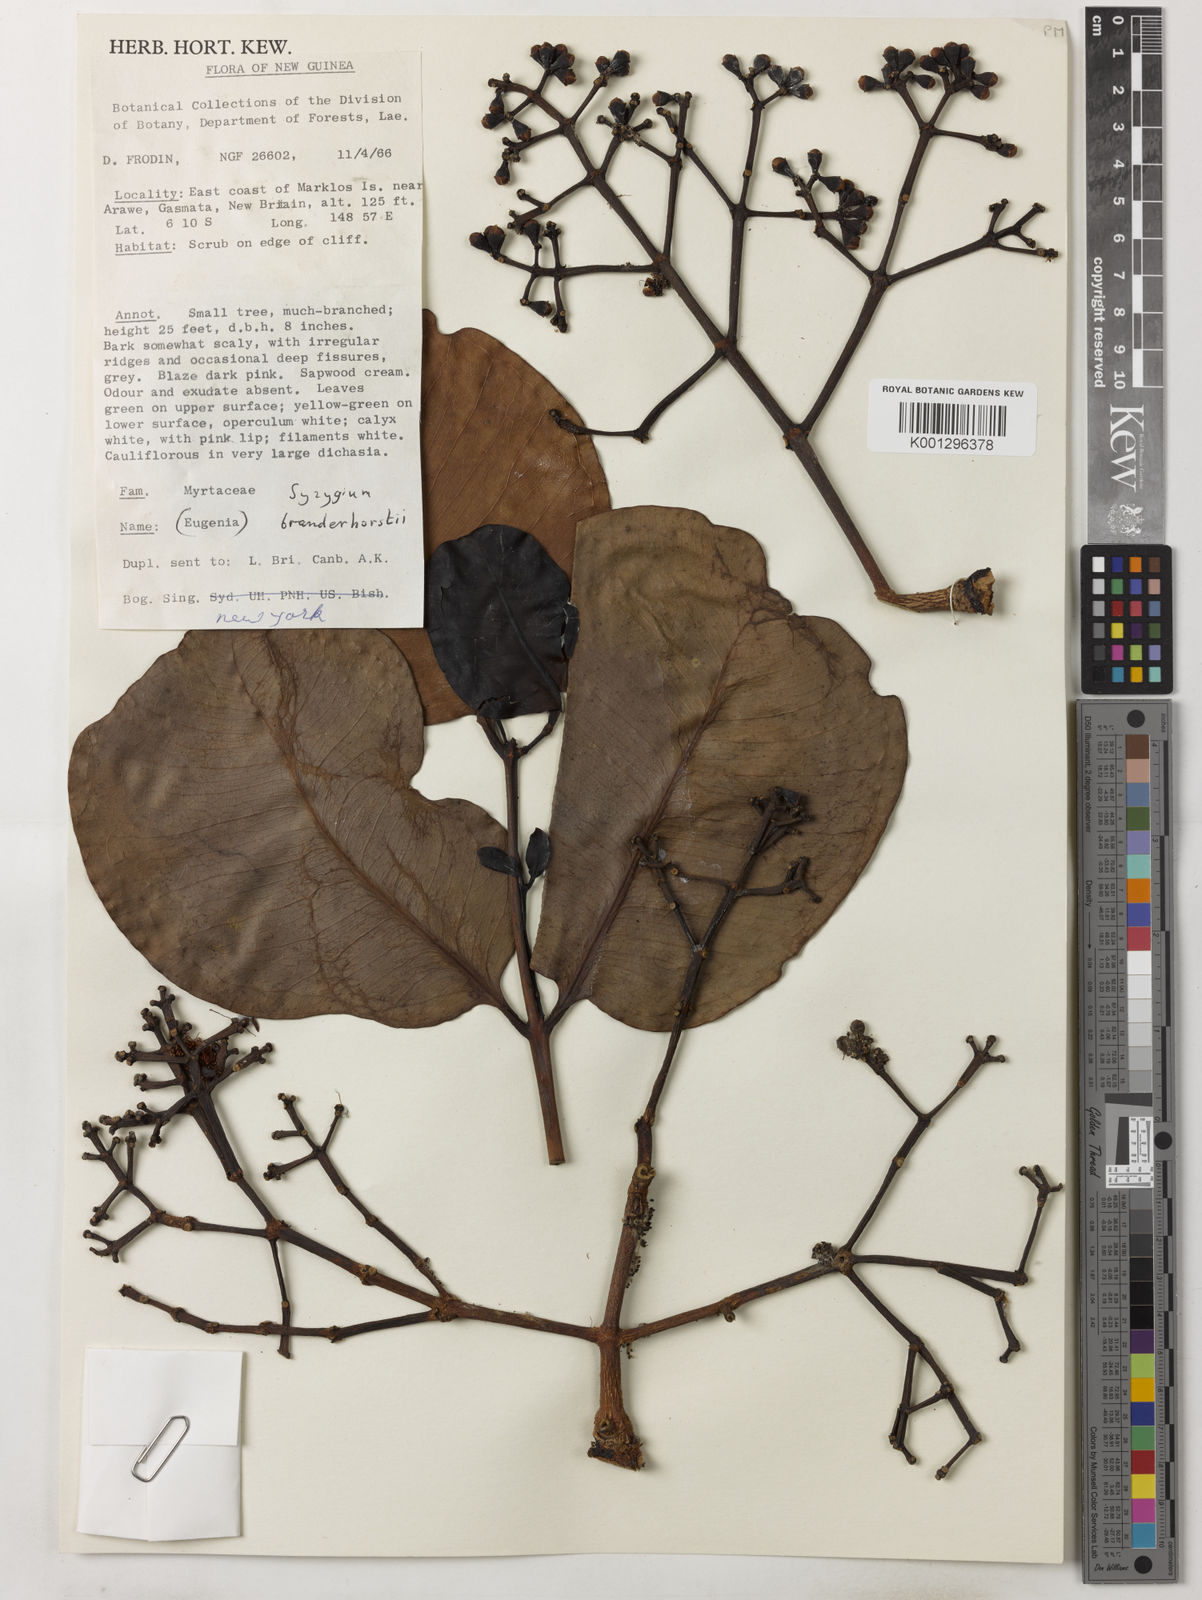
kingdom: Plantae
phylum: Tracheophyta
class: Magnoliopsida
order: Myrtales
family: Myrtaceae
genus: Syzygium
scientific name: Syzygium branderhorstii
